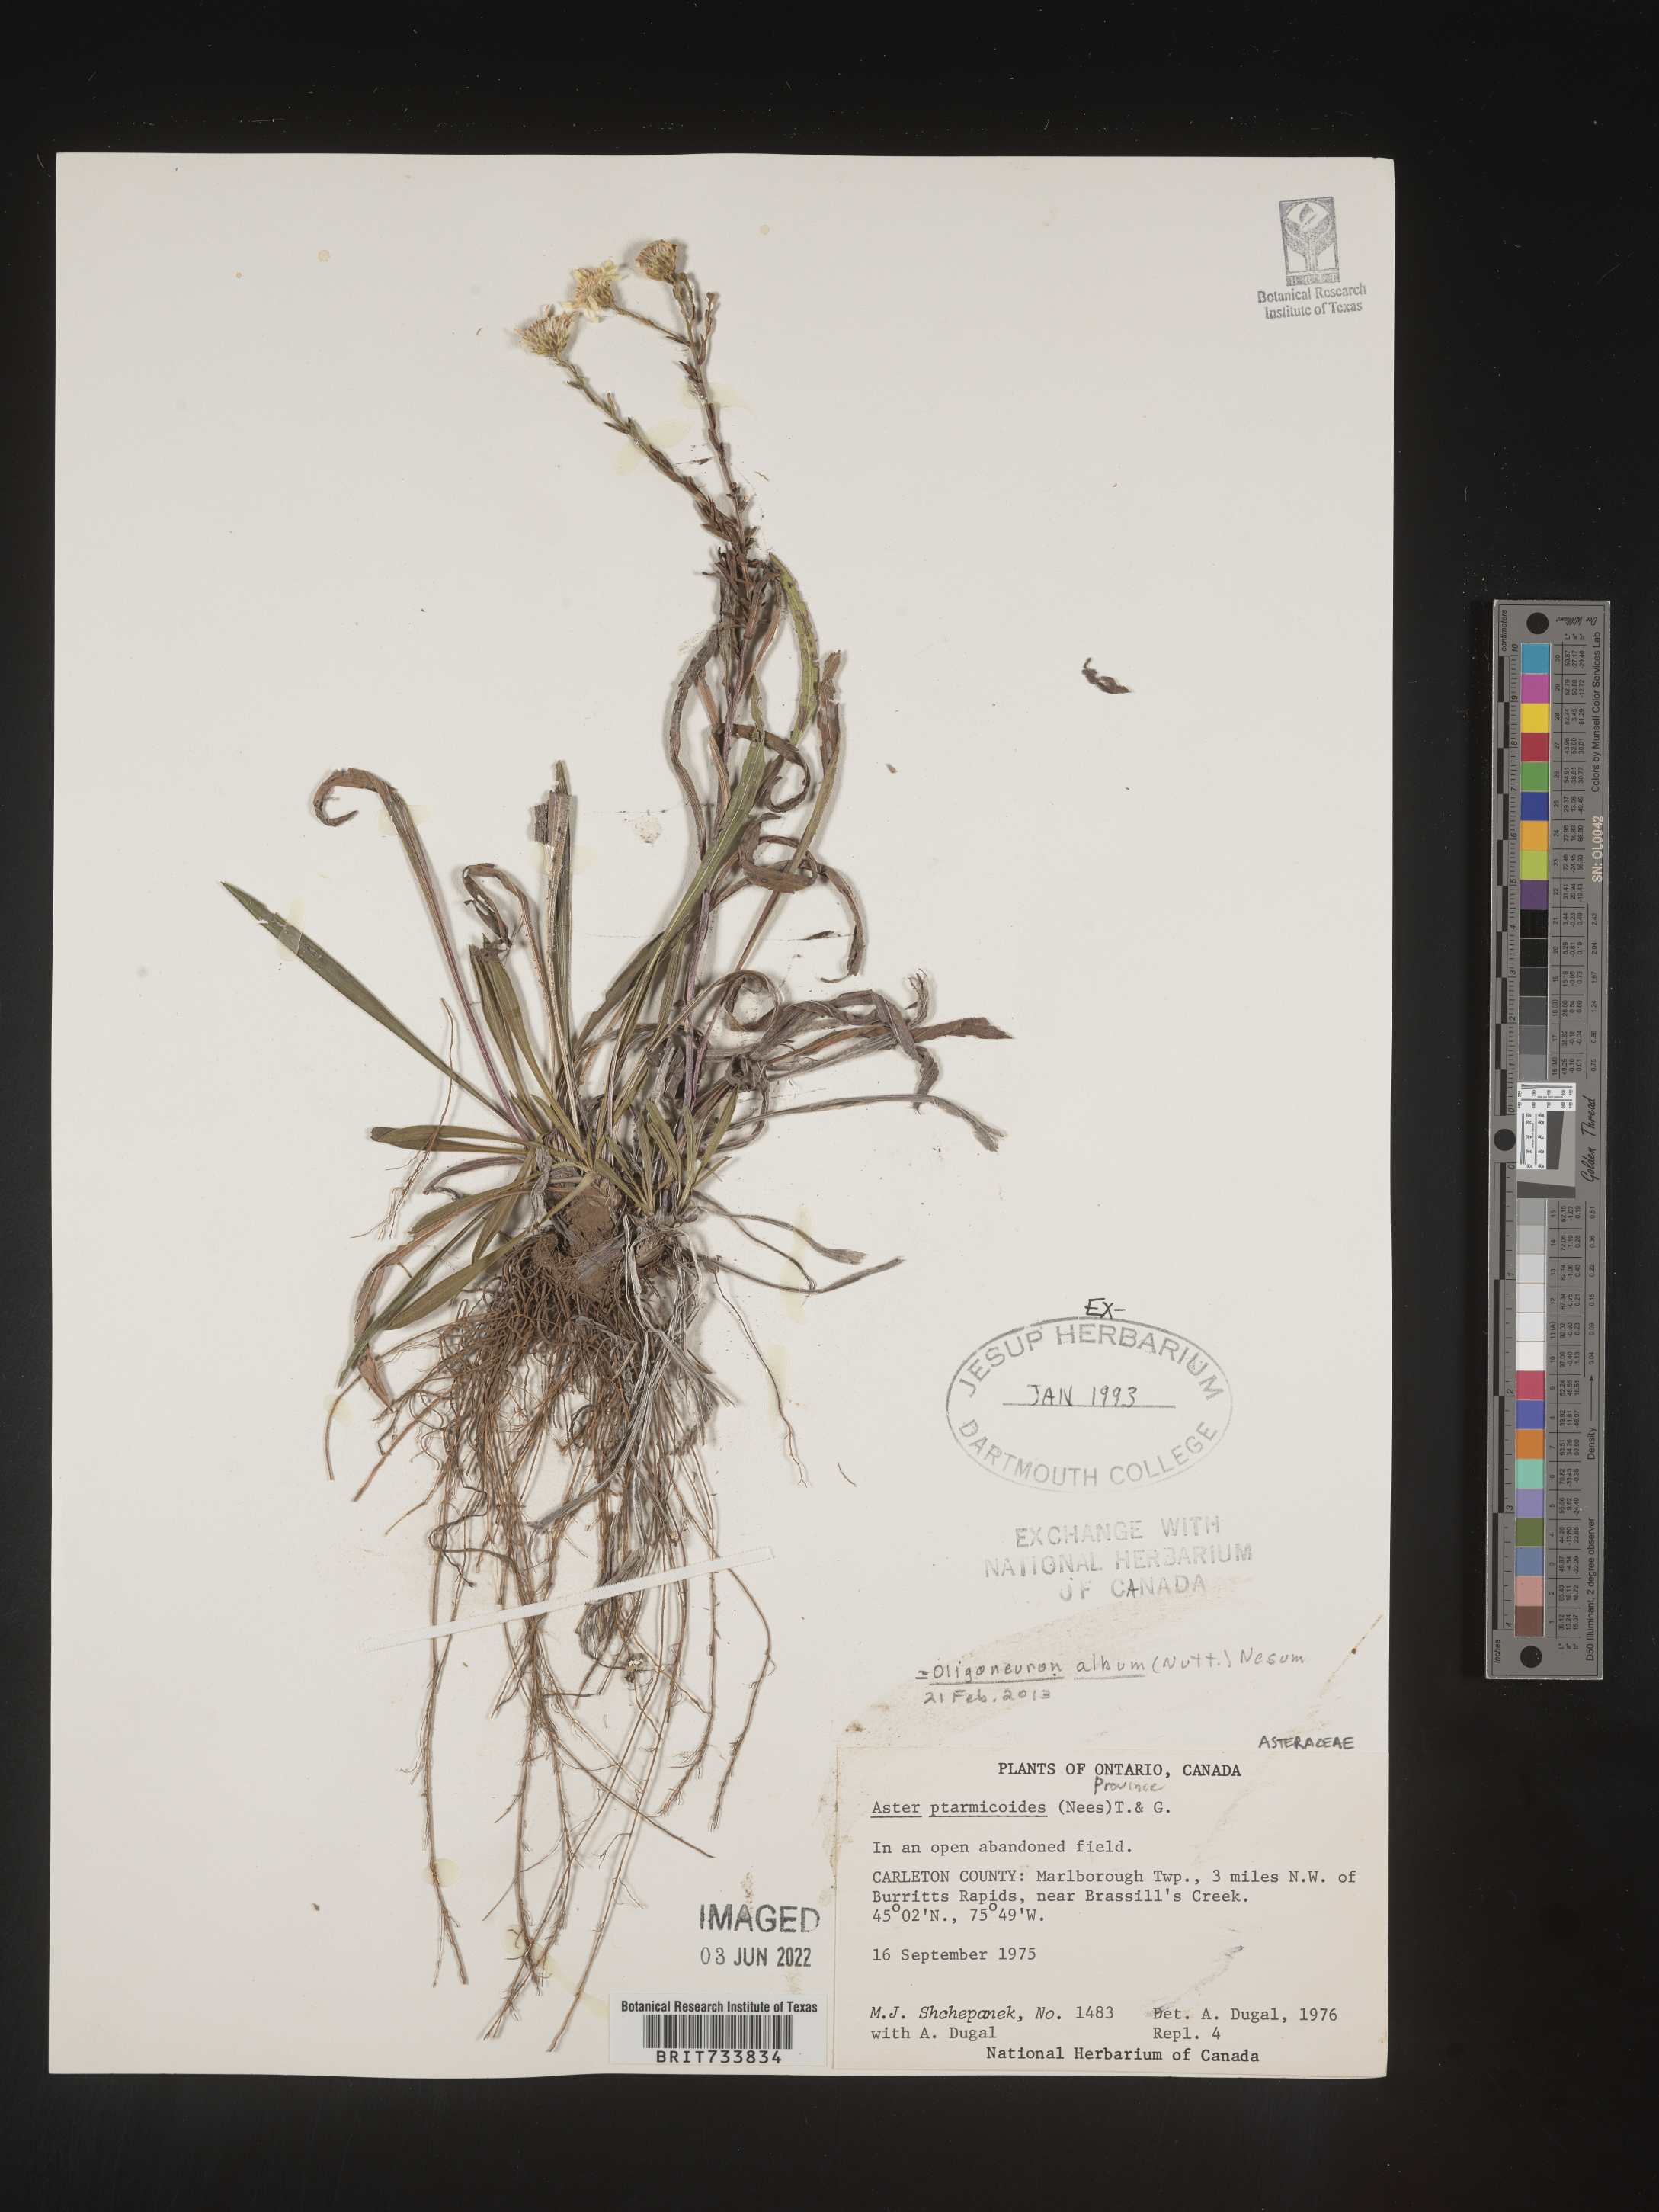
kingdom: Plantae
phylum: Tracheophyta
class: Magnoliopsida
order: Asterales
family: Asteraceae
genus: Solidago
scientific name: Solidago ptarmicoides
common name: White flat-top goldenrod
